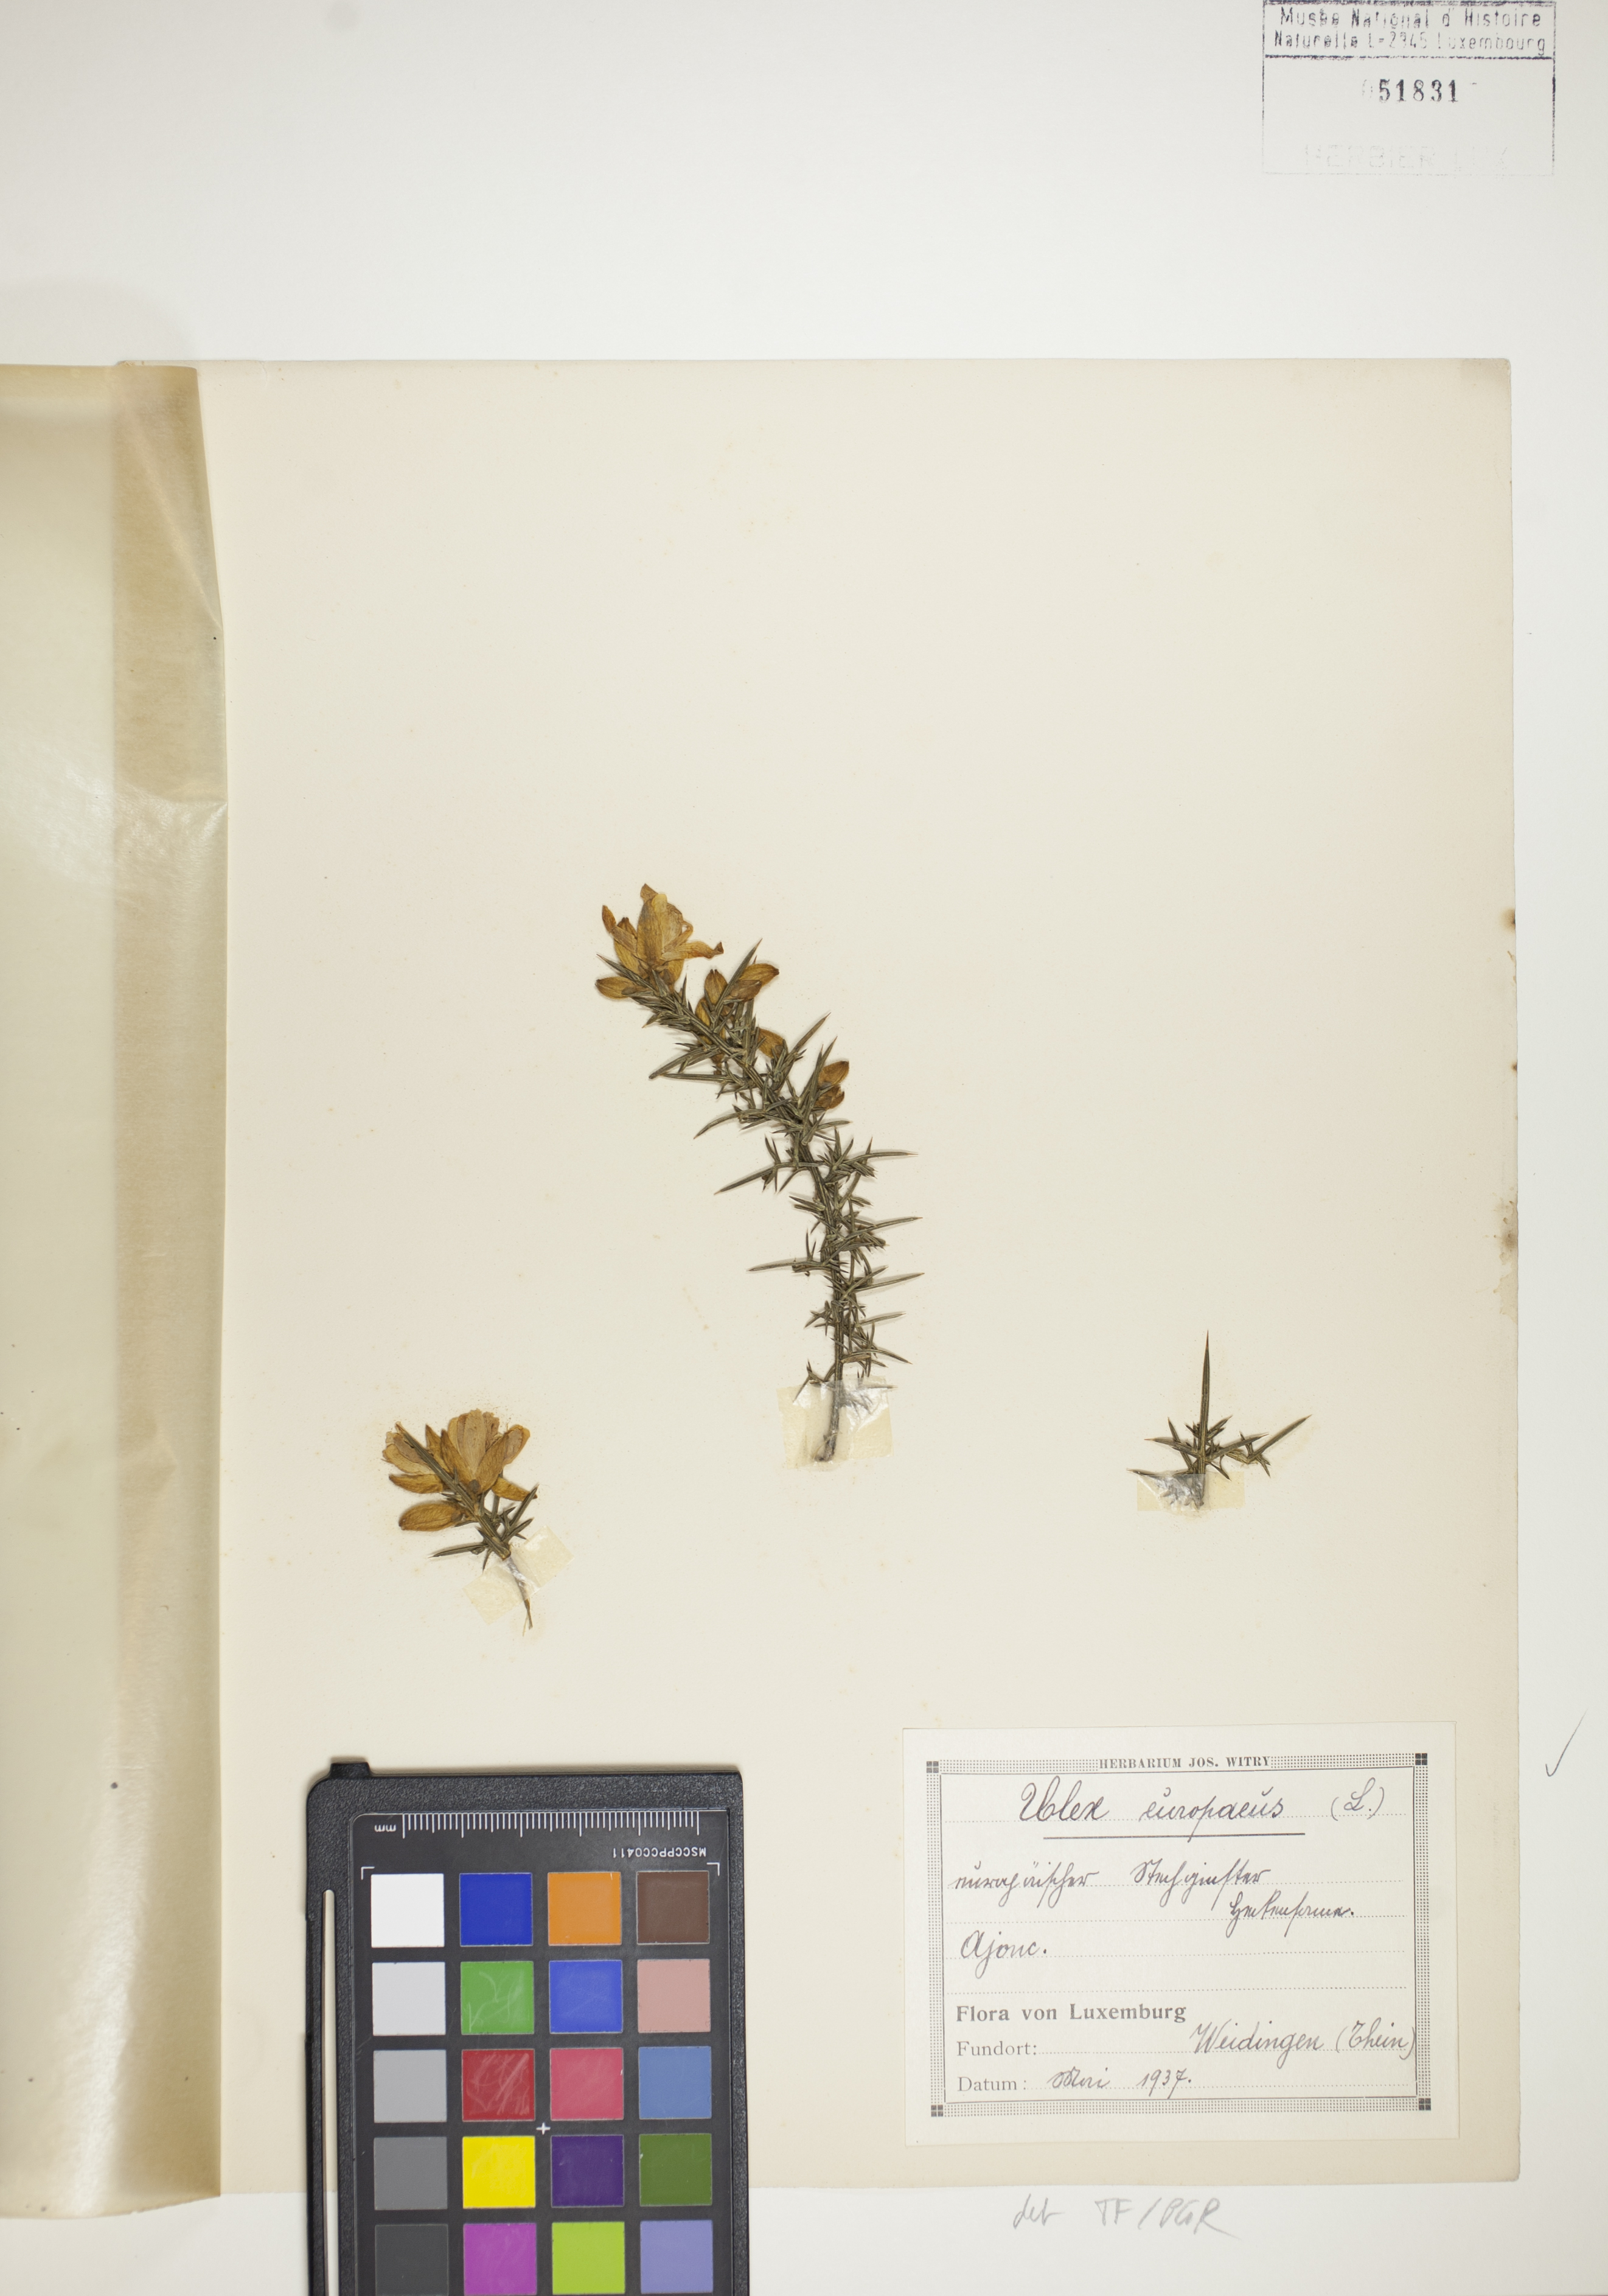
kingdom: Plantae
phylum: Tracheophyta
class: Magnoliopsida
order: Fabales
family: Fabaceae
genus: Ulex
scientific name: Ulex europaeus
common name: Common gorse
